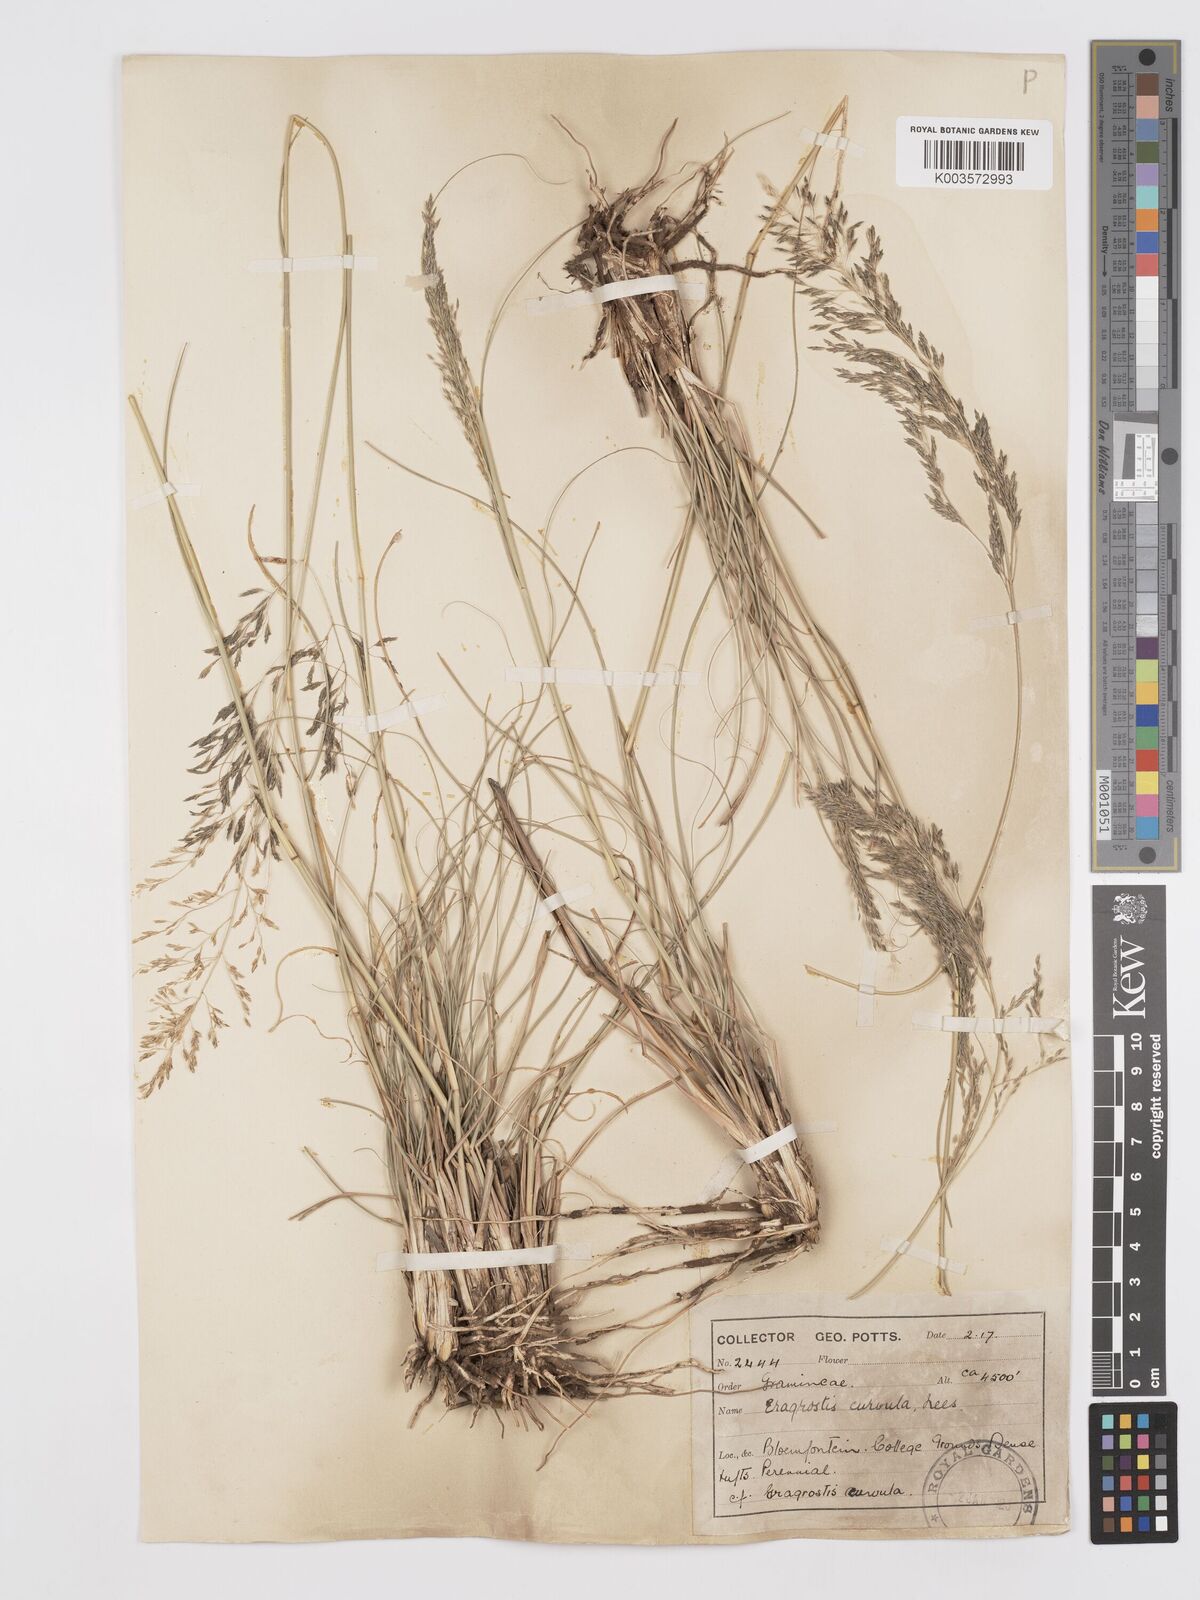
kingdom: Plantae
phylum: Tracheophyta
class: Liliopsida
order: Poales
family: Poaceae
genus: Eragrostis
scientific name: Eragrostis curvula
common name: African love-grass
